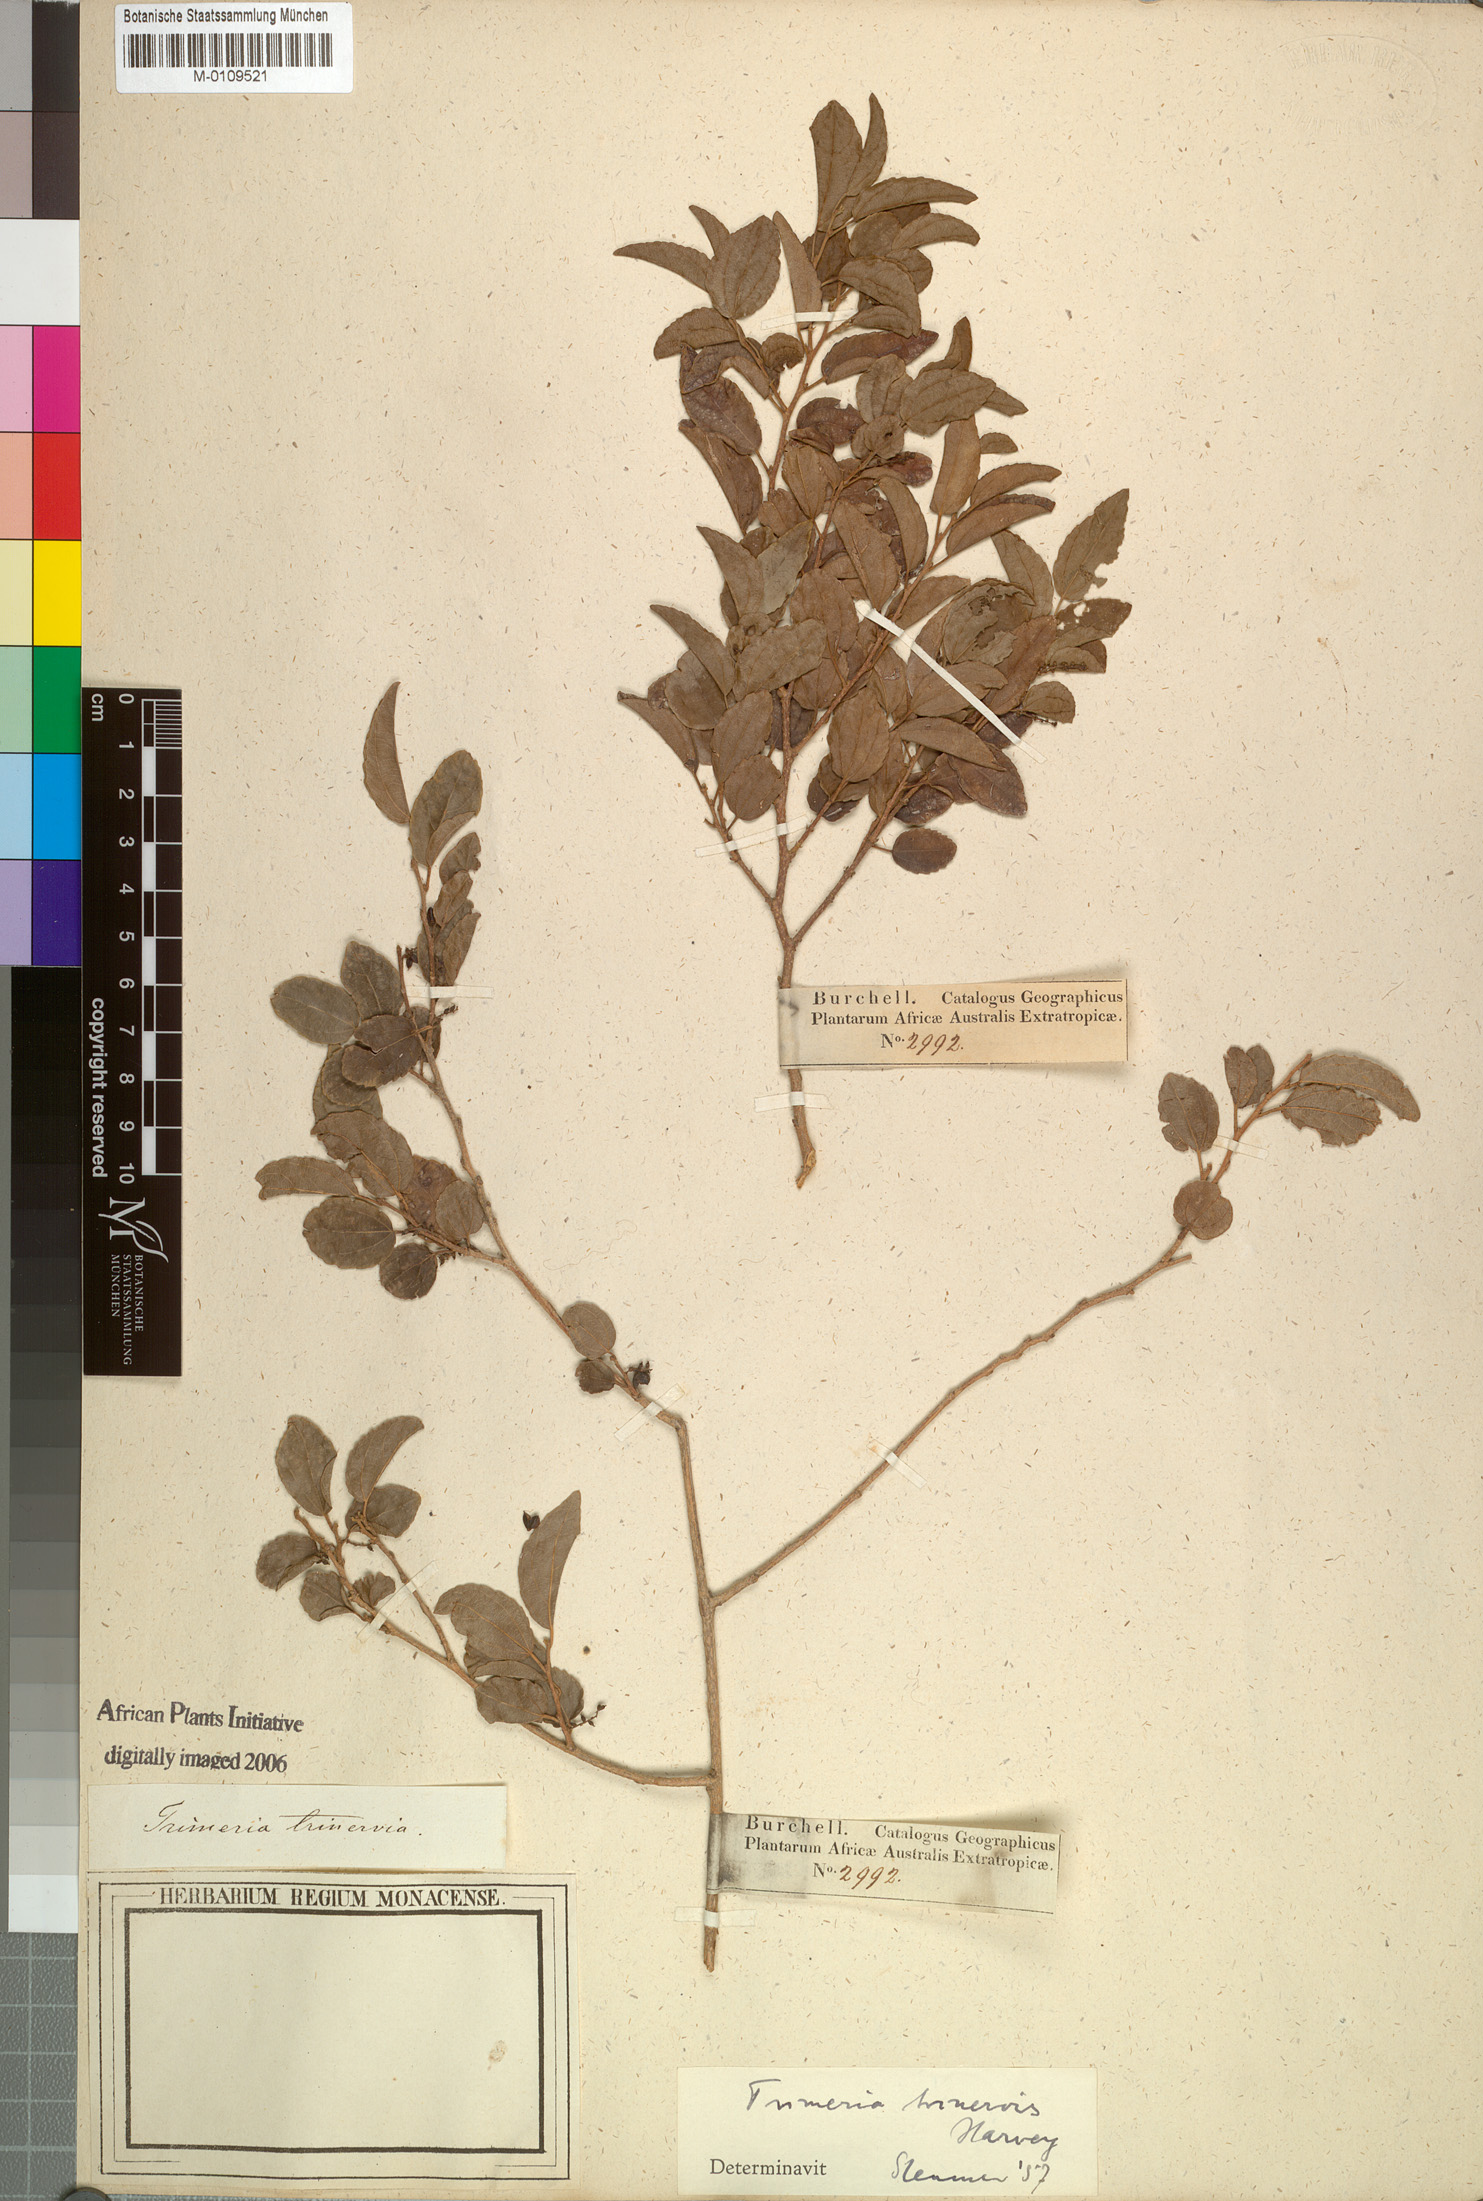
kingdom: Plantae
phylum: Tracheophyta
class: Magnoliopsida
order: Malpighiales
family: Salicaceae
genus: Trimeria
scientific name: Trimeria trinervis
